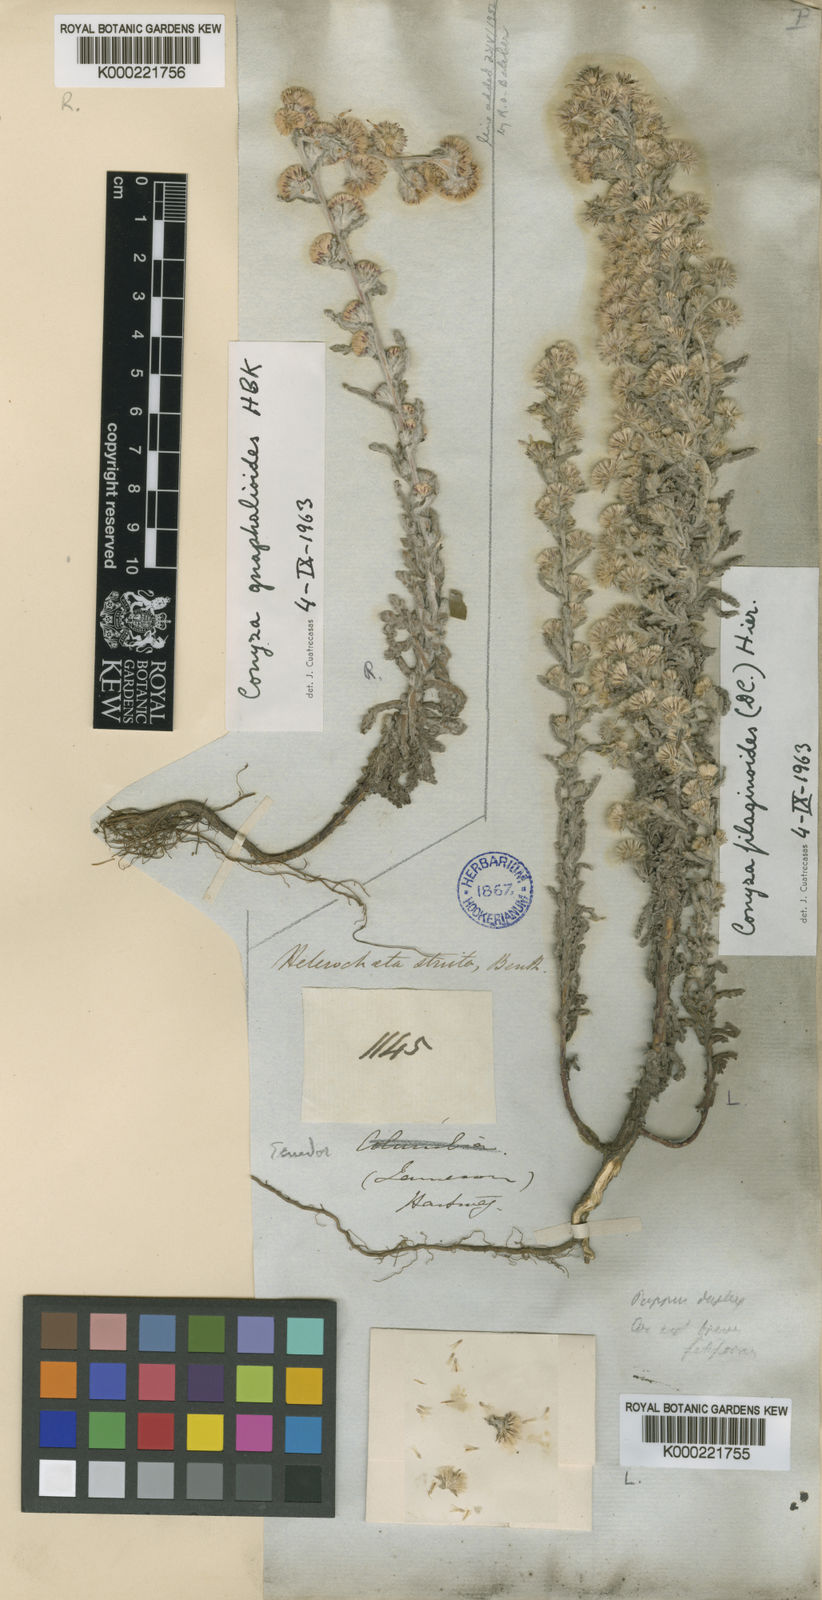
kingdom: Plantae
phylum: Tracheophyta
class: Magnoliopsida
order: Asterales
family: Asteraceae
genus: Laennecia
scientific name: Laennecia gnaphalioides
